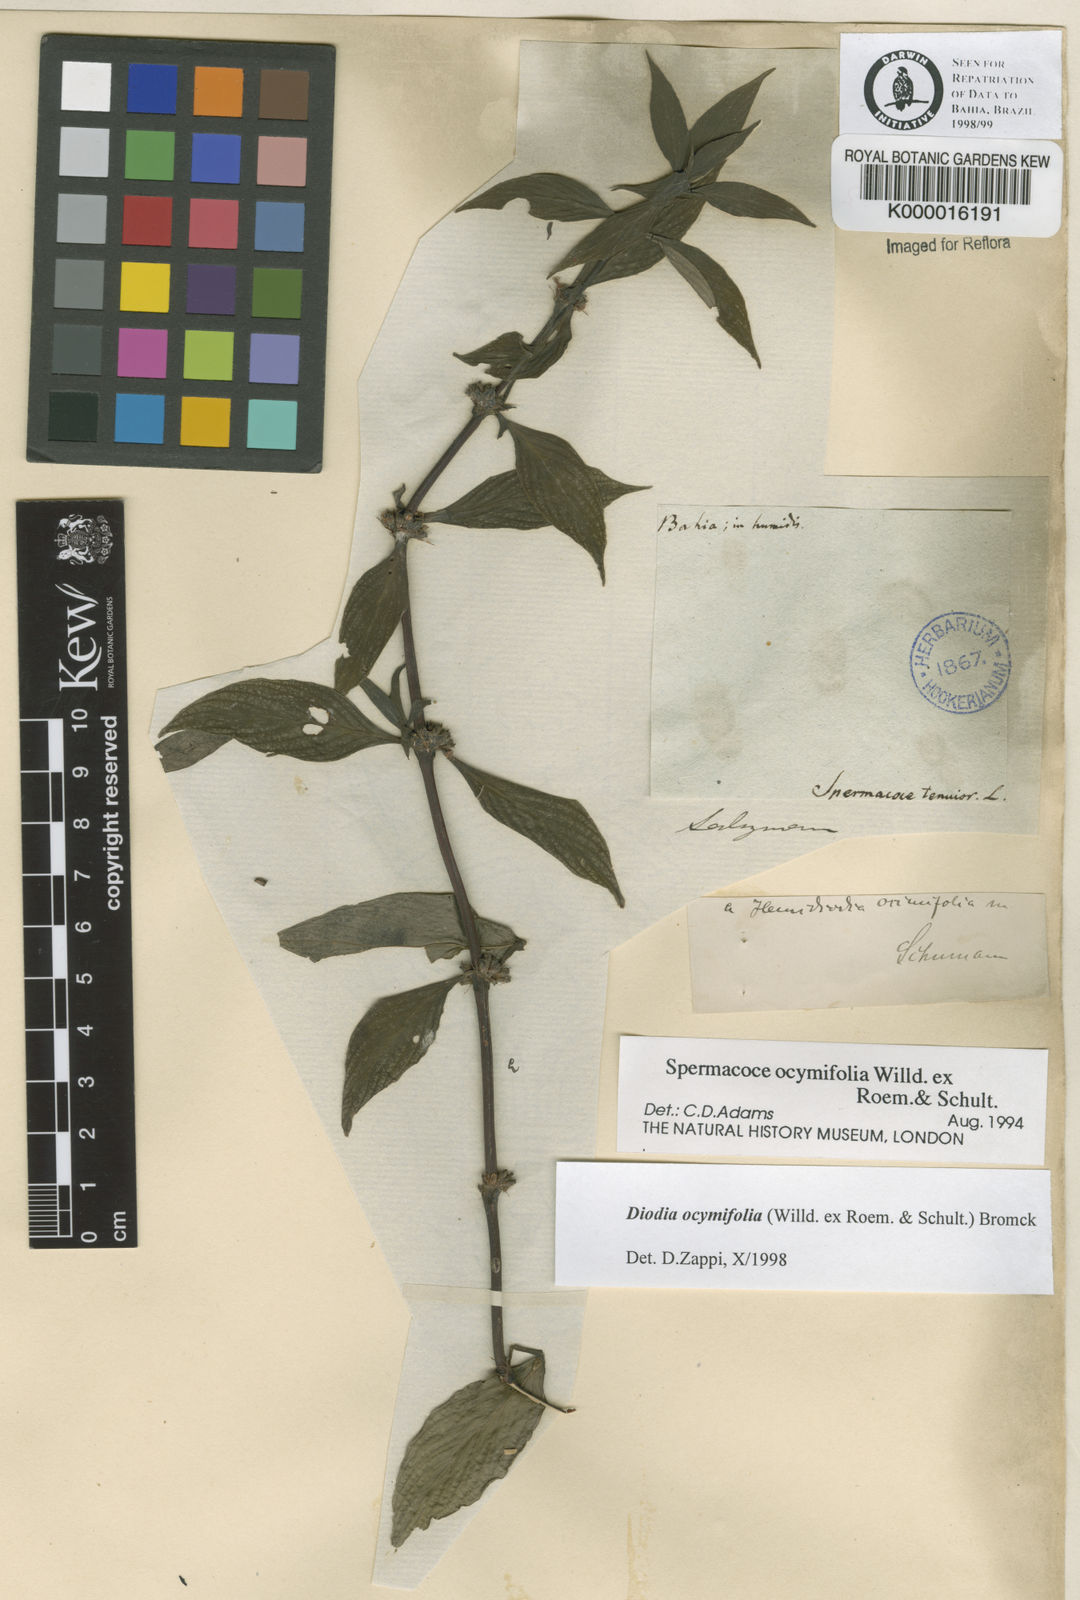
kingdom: Plantae
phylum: Tracheophyta
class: Magnoliopsida
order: Gentianales
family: Rubiaceae
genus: Spermacoce
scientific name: Spermacoce ocymifolia
